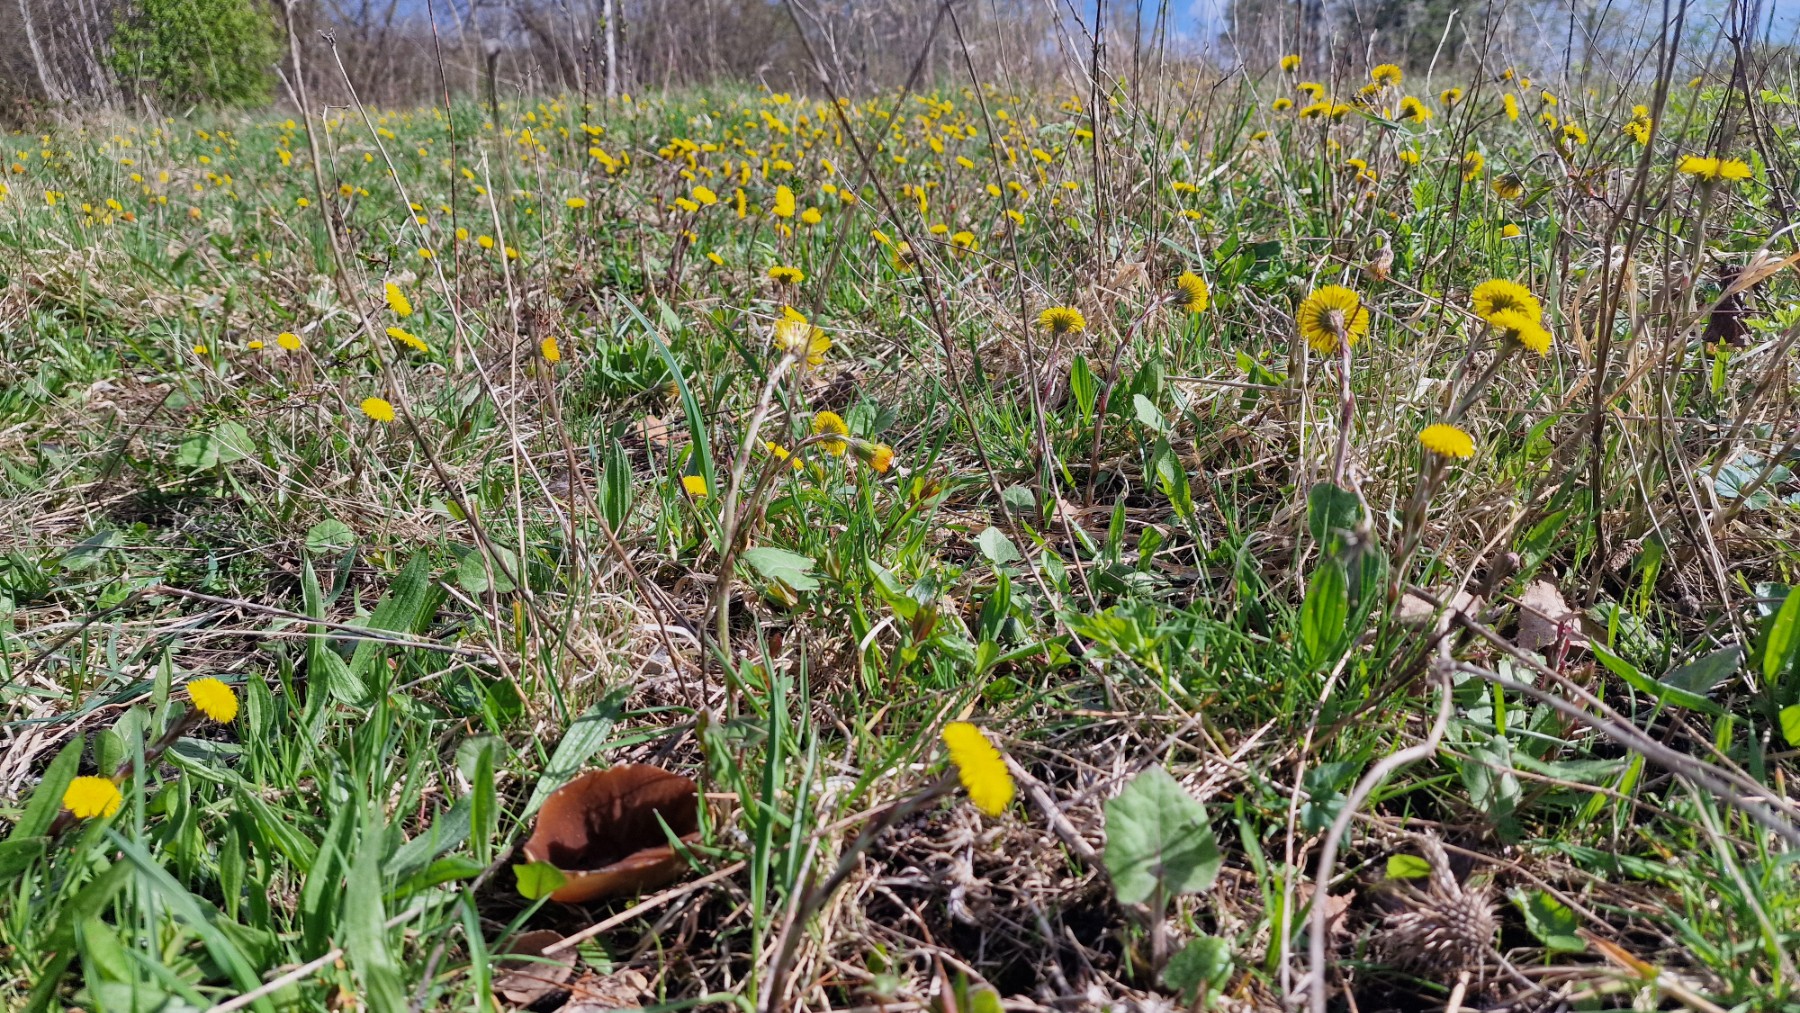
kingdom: Fungi
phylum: Ascomycota
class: Pezizomycetes
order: Pezizales
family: Morchellaceae
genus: Disciotis
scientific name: Disciotis venosa
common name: klor-bægermorkel
